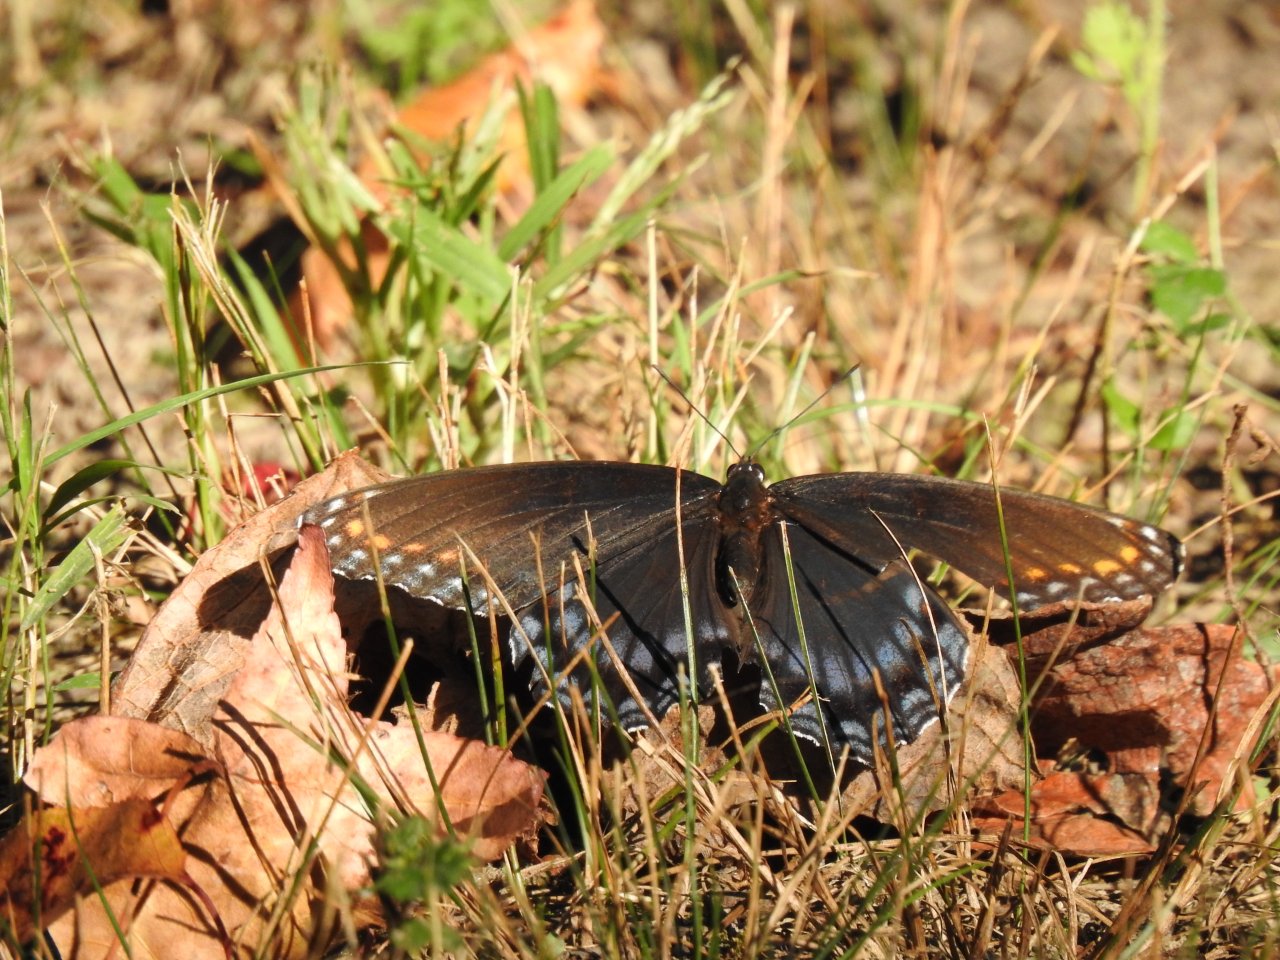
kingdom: Animalia
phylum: Arthropoda
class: Insecta
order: Lepidoptera
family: Nymphalidae
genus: Limenitis
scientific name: Limenitis arthemis
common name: Red-spotted Admiral
